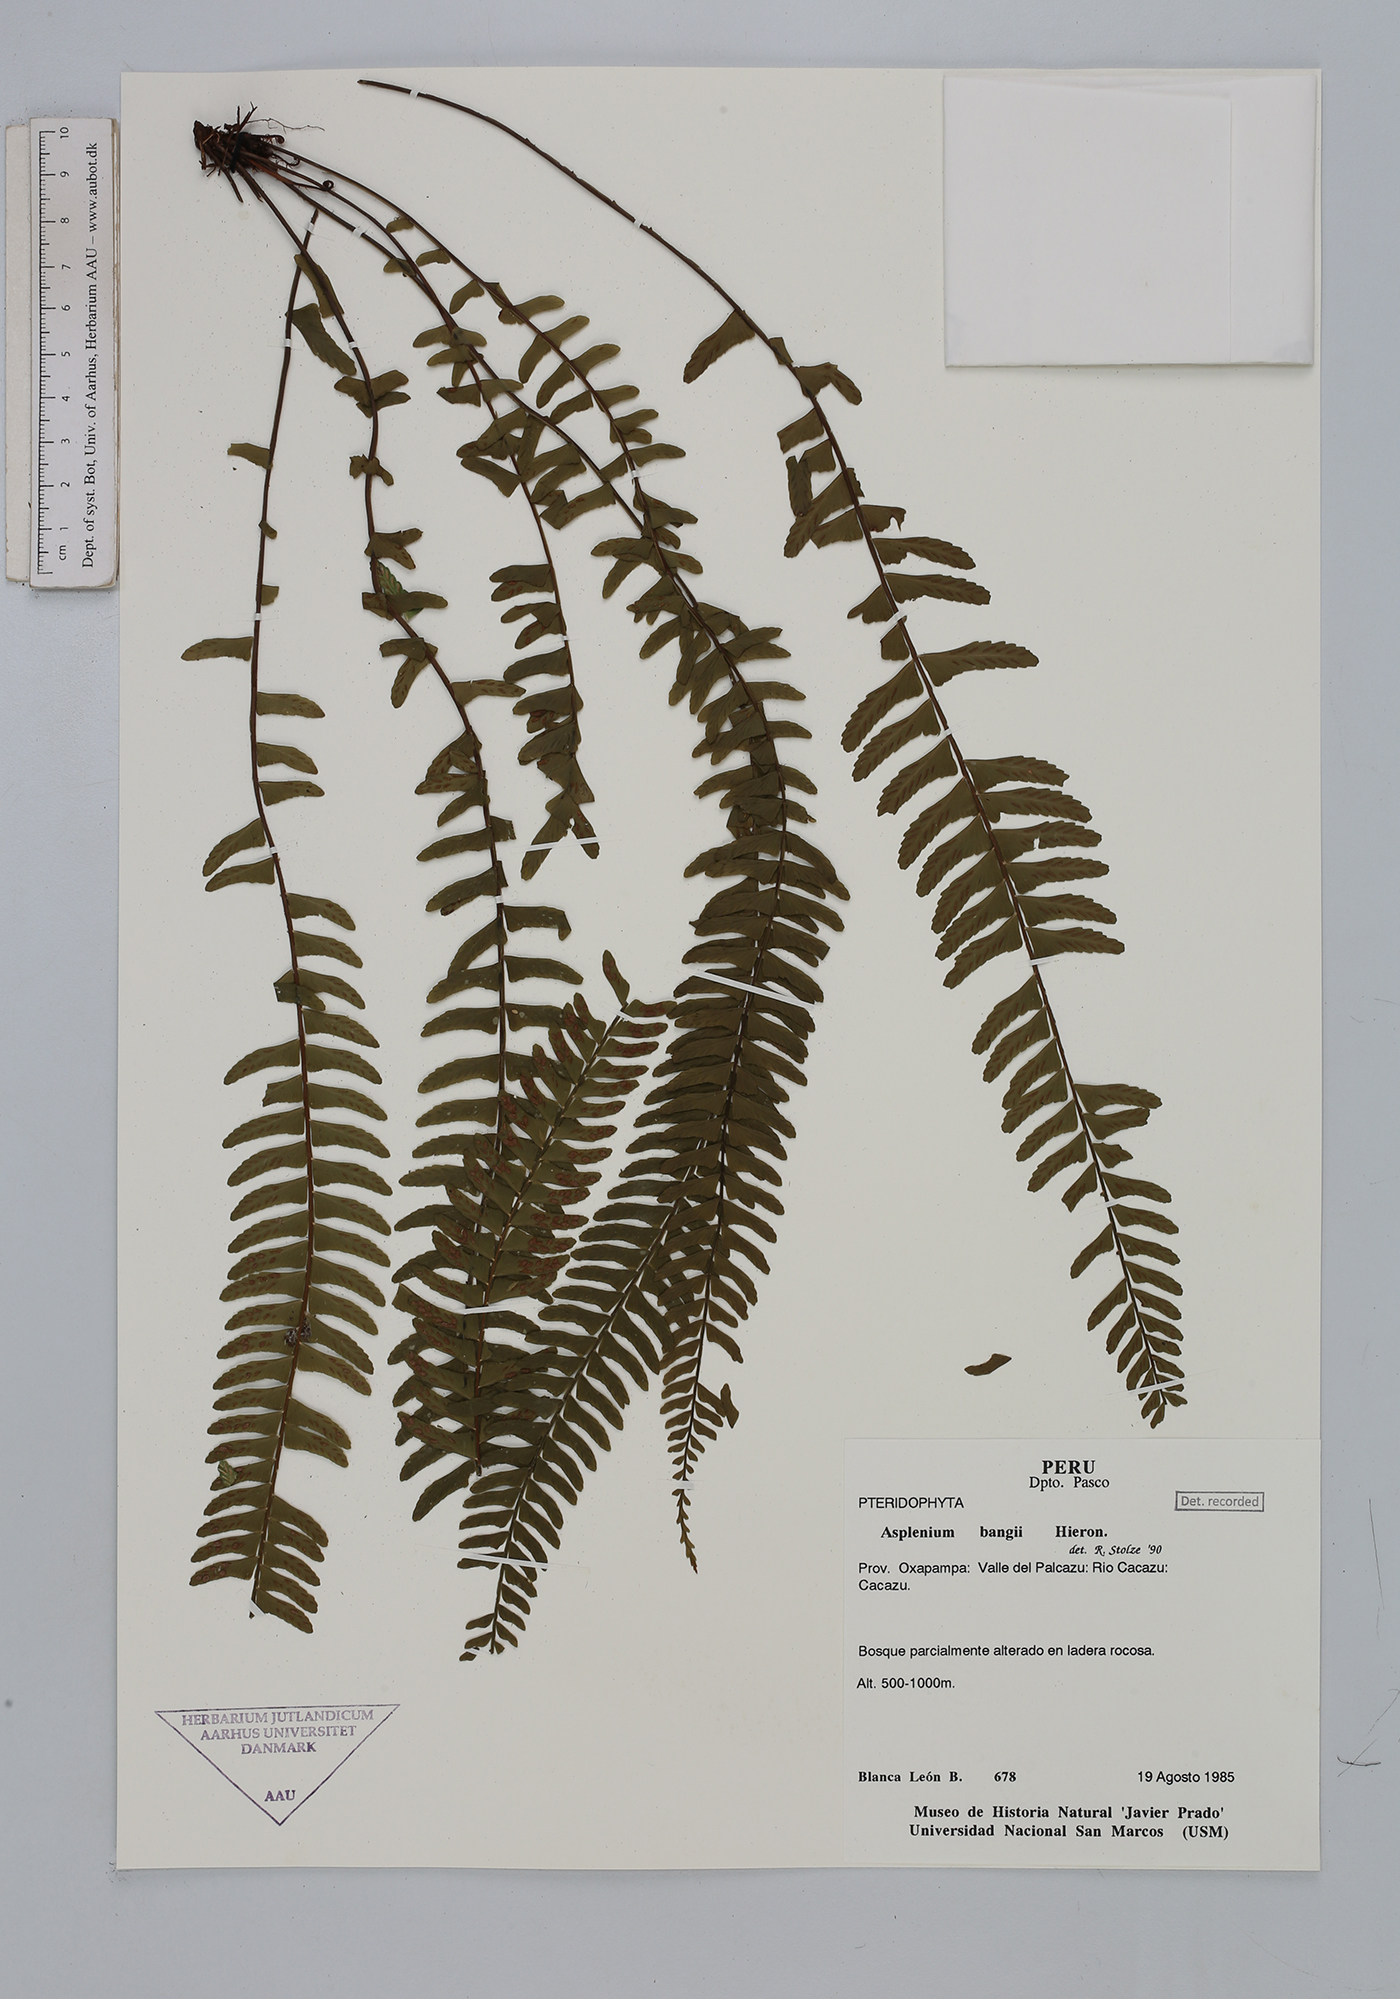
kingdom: Plantae
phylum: Tracheophyta
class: Polypodiopsida
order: Polypodiales
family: Aspleniaceae
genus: Asplenium
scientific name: Asplenium bangii
